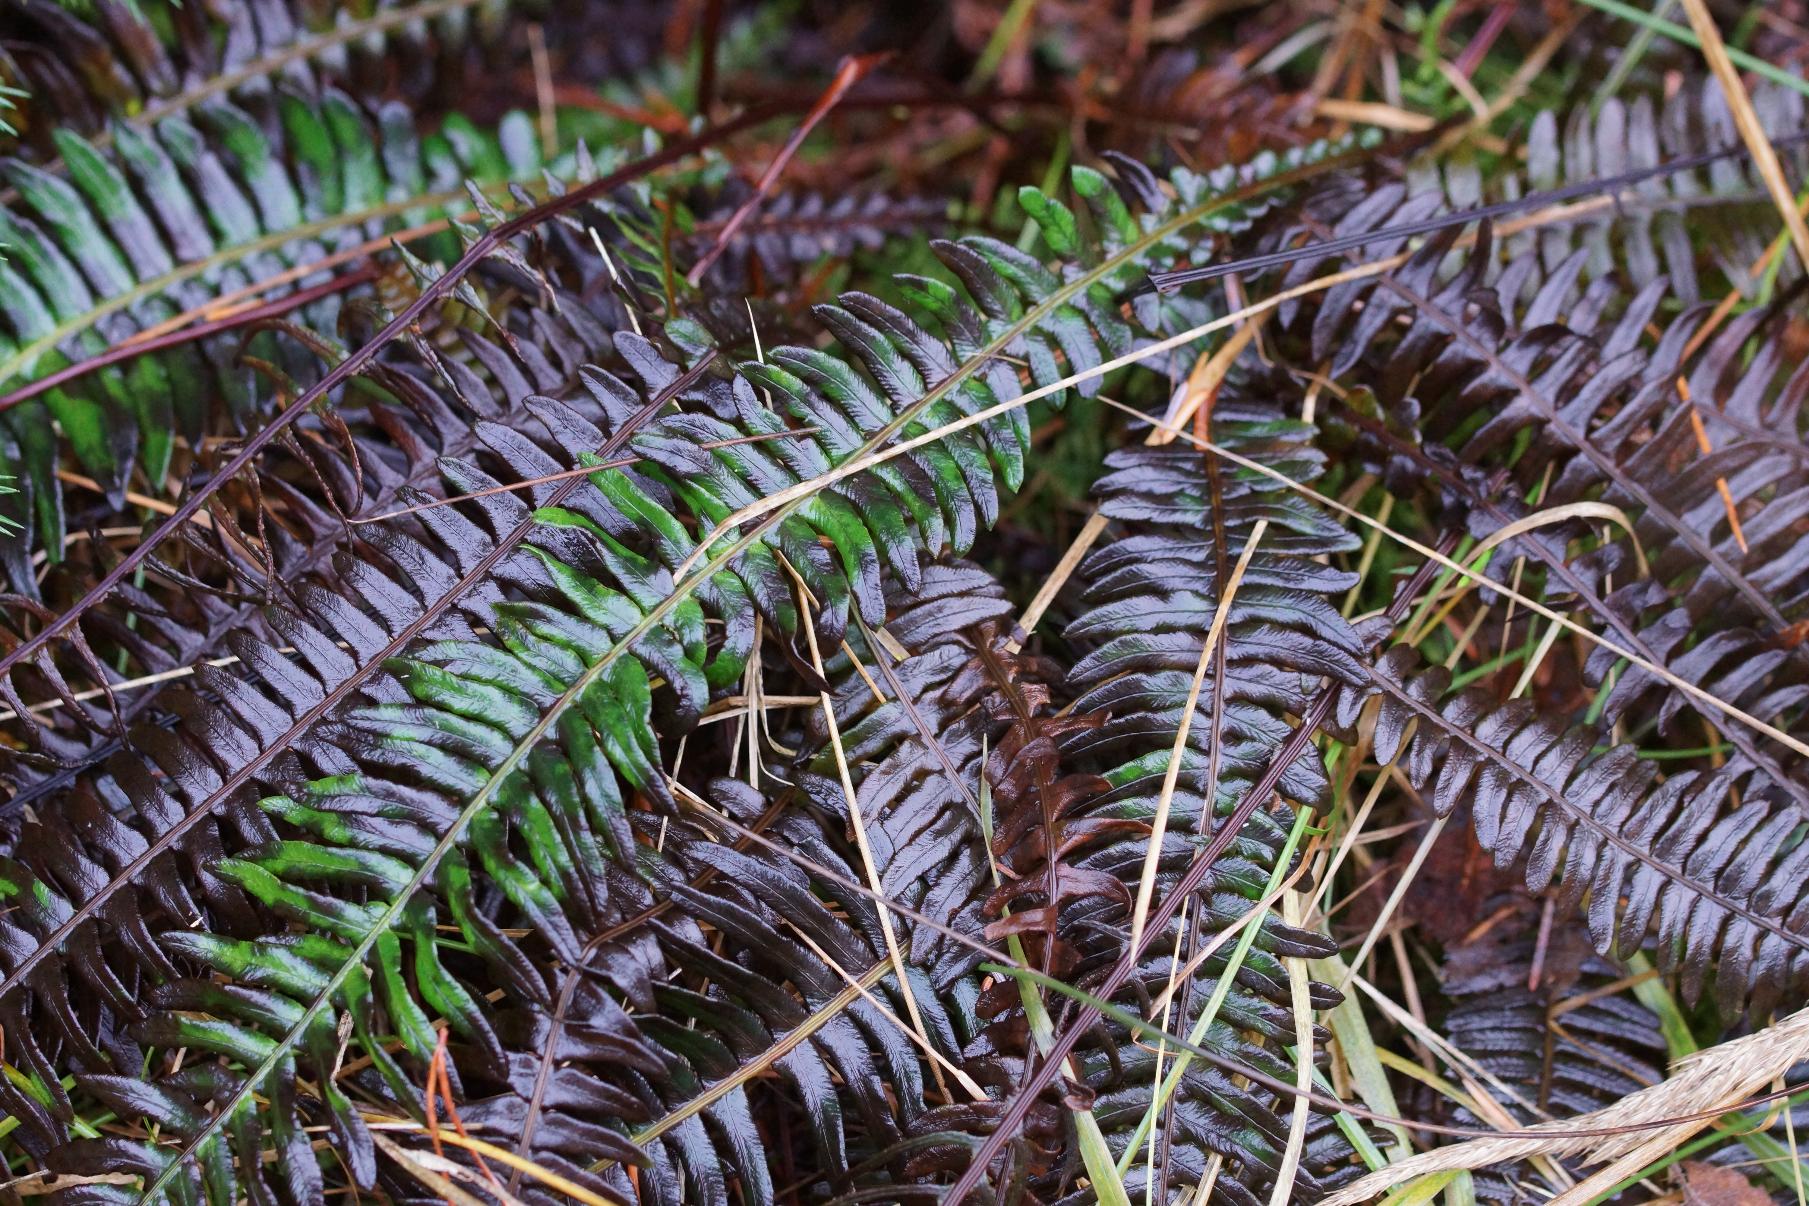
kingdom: Plantae
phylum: Tracheophyta
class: Polypodiopsida
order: Polypodiales
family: Blechnaceae
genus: Struthiopteris
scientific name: Struthiopteris spicant
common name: Kambregne
